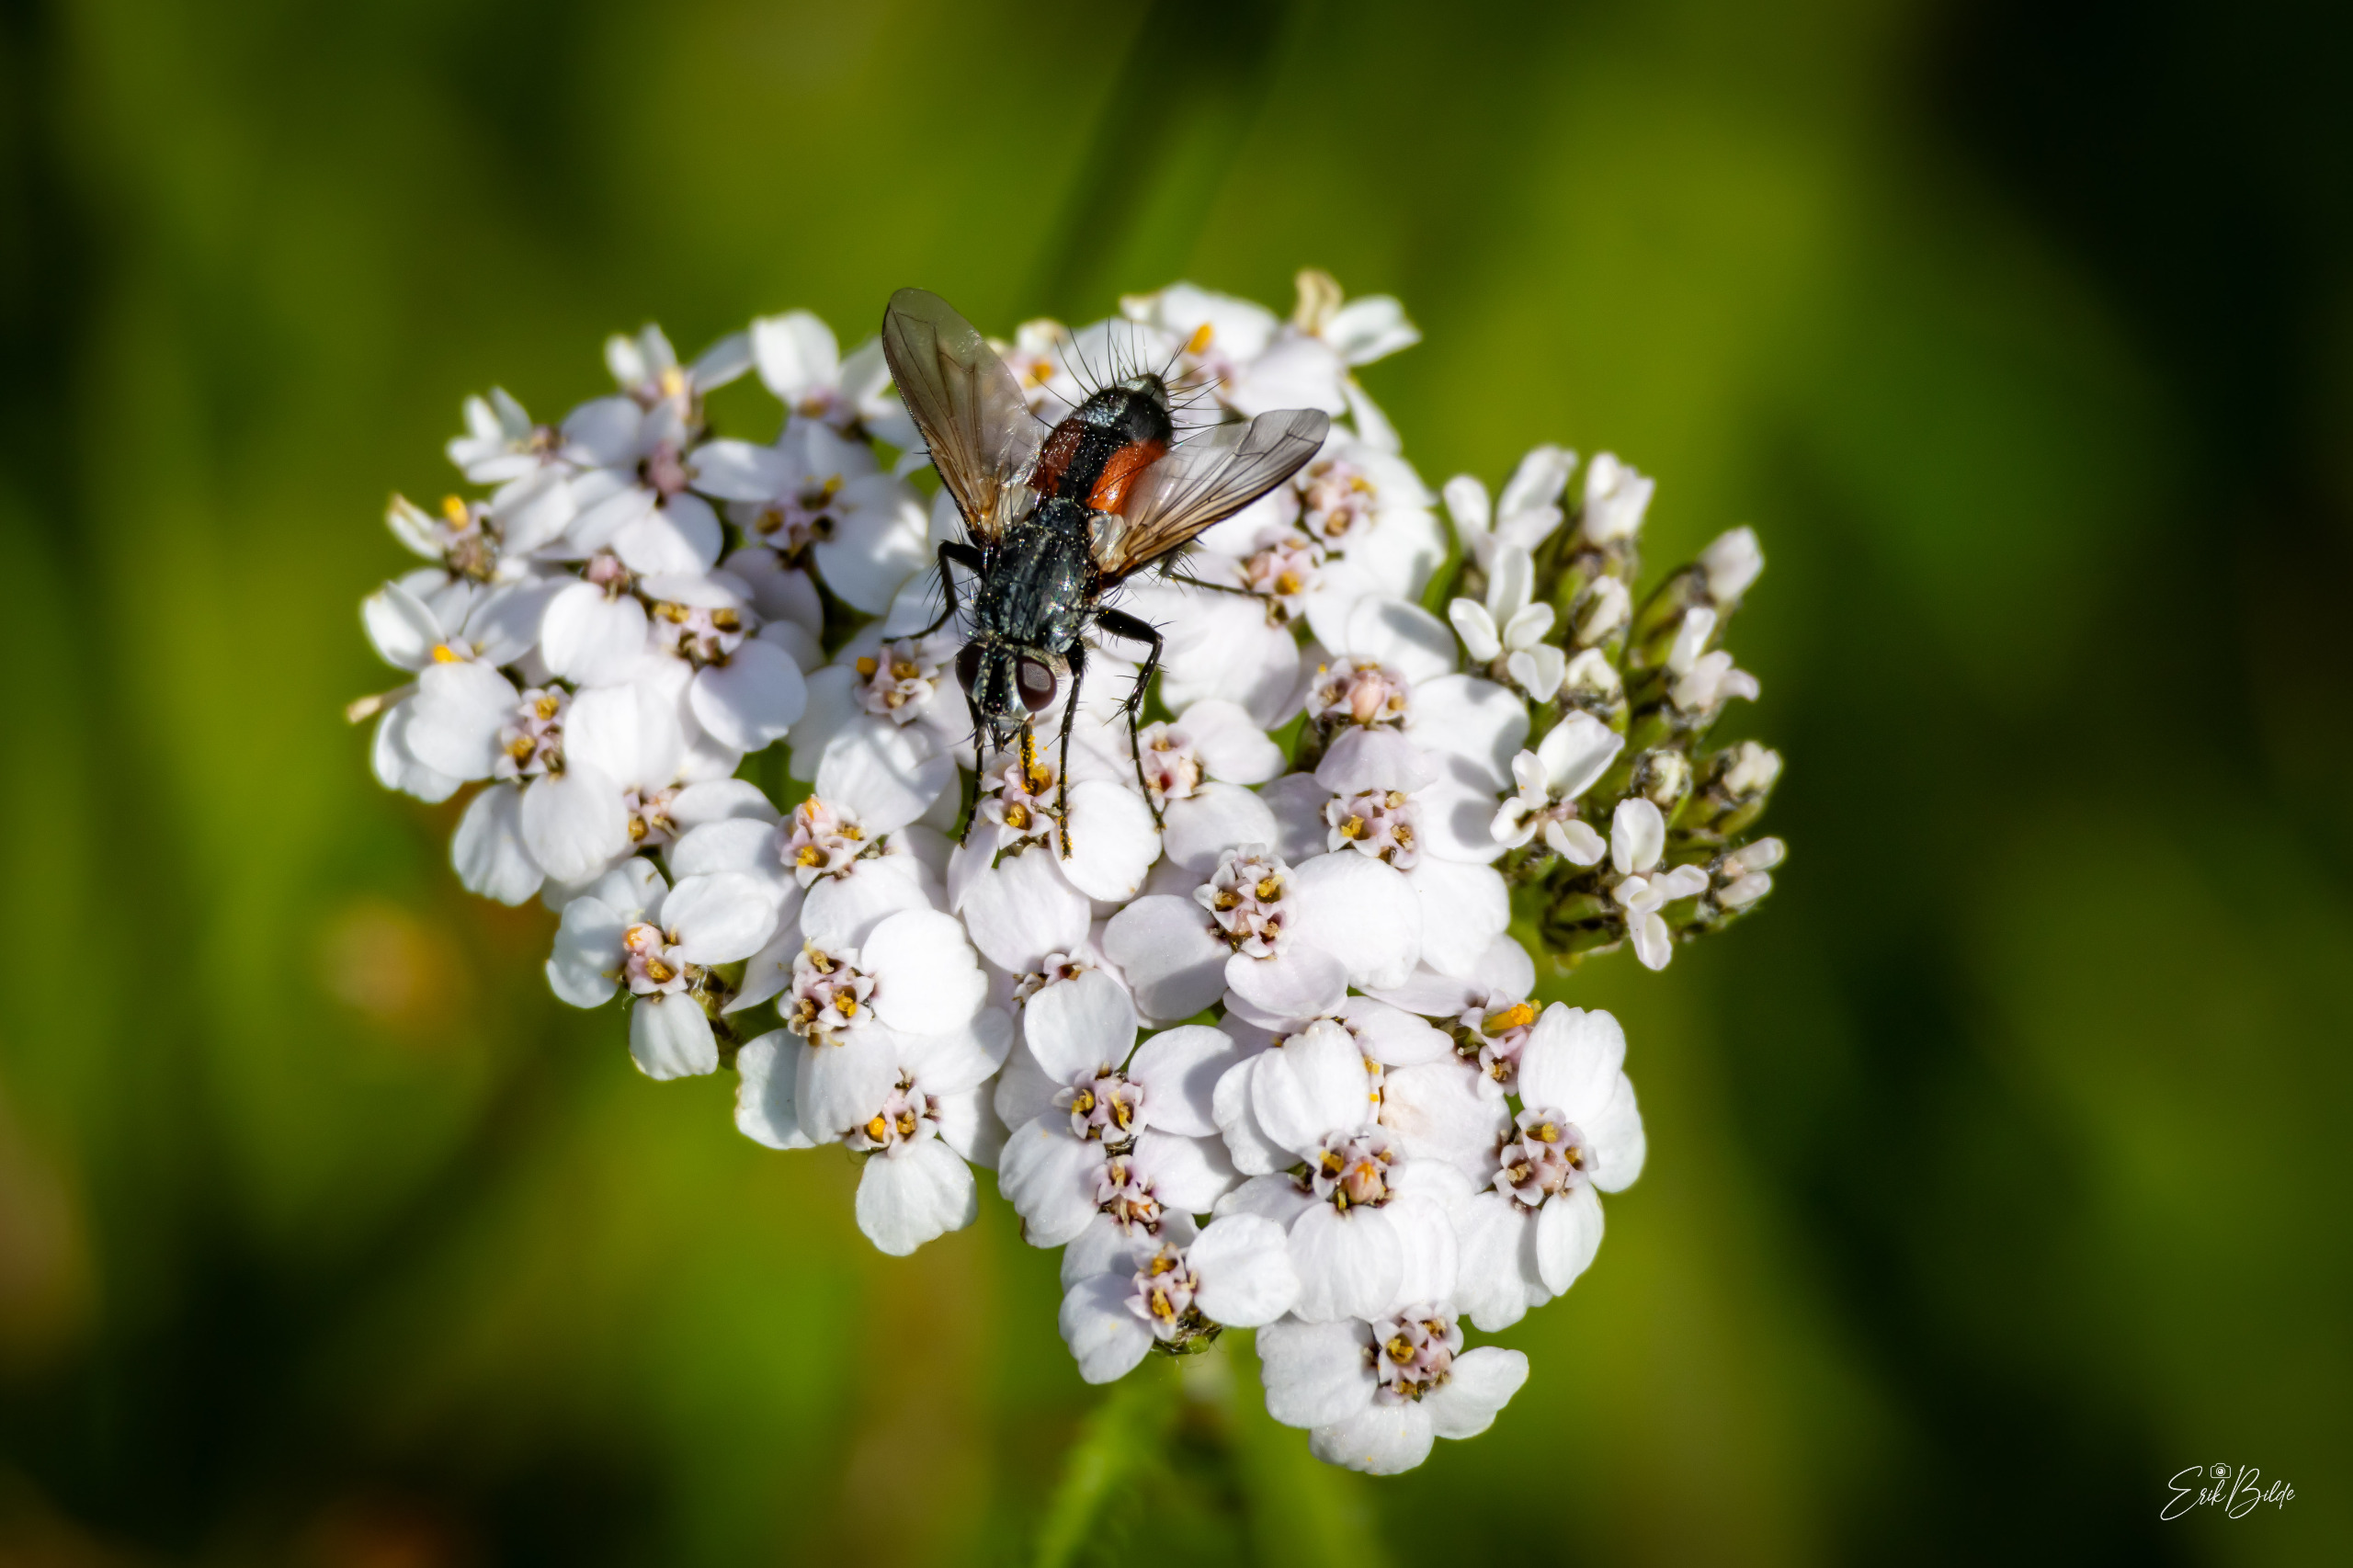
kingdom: Animalia
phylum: Arthropoda
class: Insecta
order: Diptera
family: Tachinidae
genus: Eriothrix
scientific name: Eriothrix rufomaculatus
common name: Rød snylteflue
